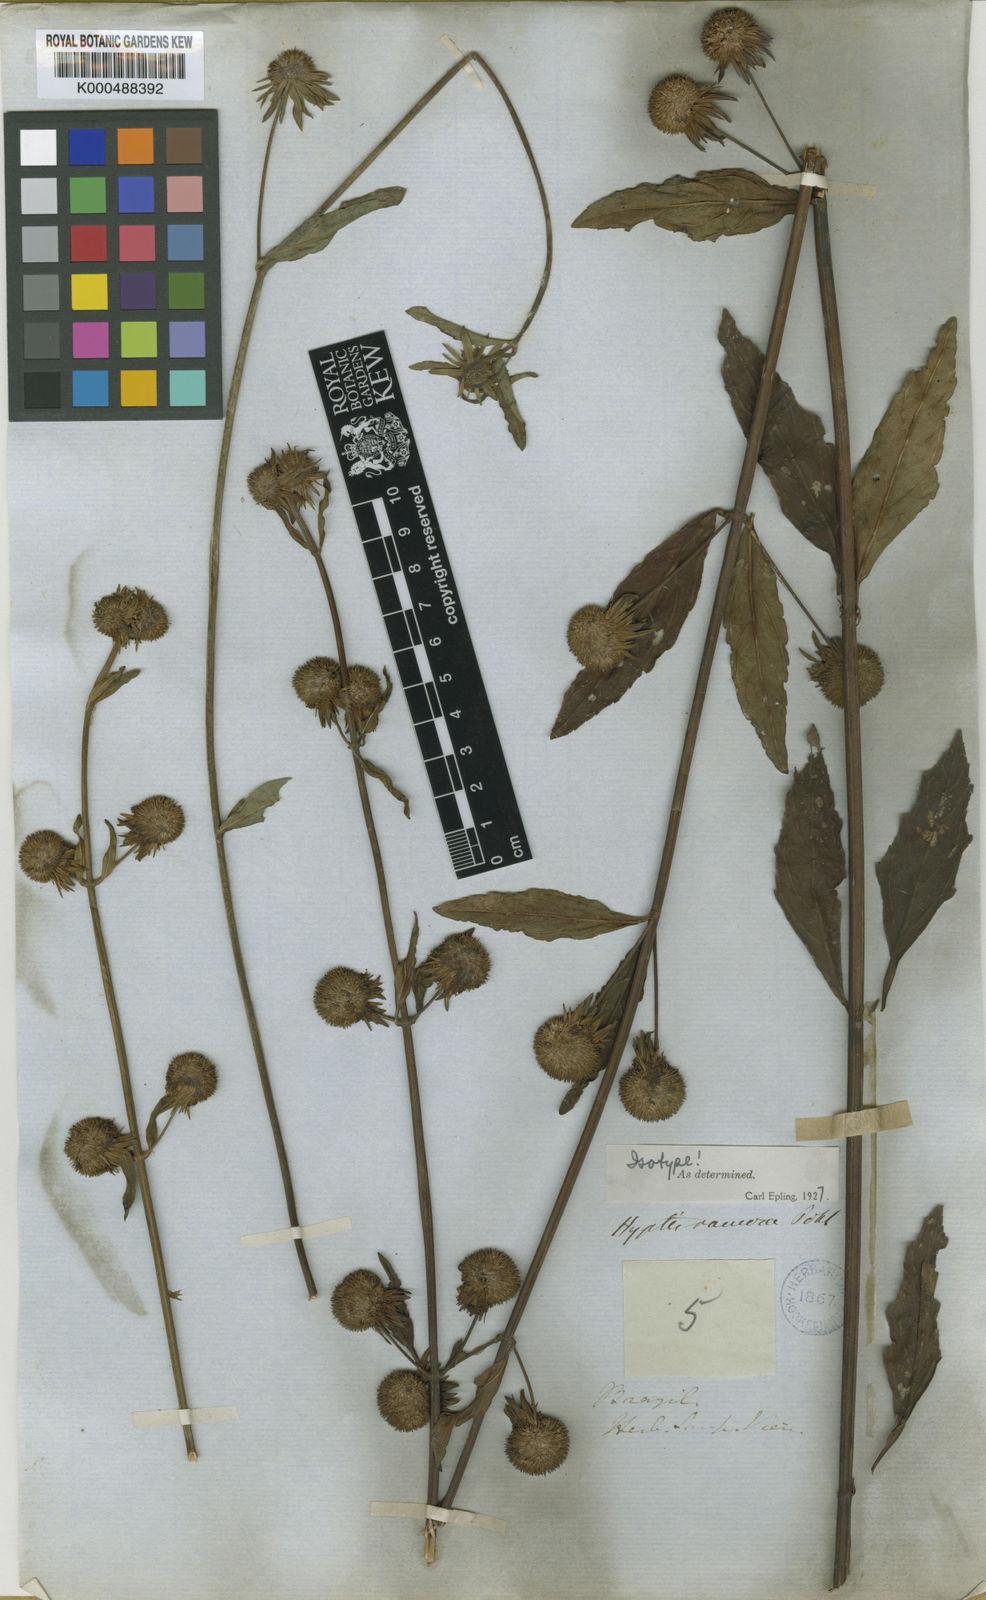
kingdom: Plantae
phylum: Tracheophyta
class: Magnoliopsida
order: Lamiales
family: Lamiaceae
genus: Hyptis
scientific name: Hyptis ramosa
